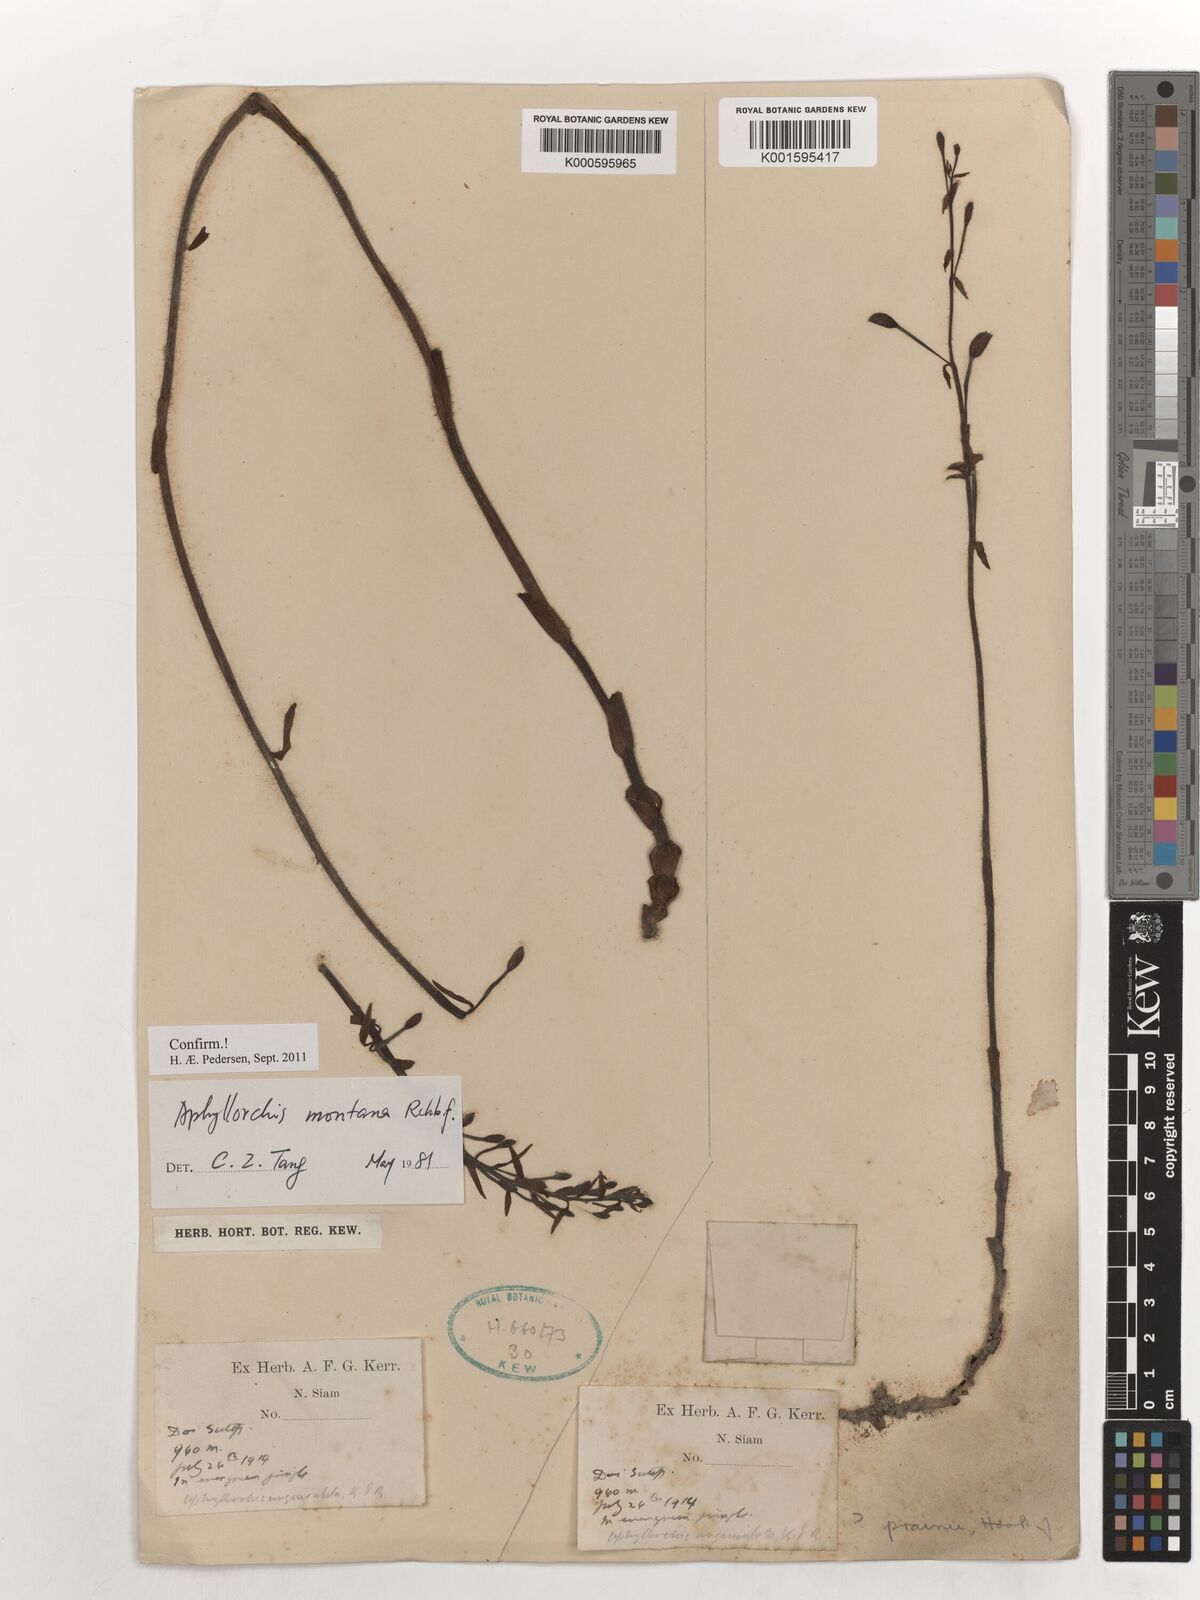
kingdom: Plantae
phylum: Tracheophyta
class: Liliopsida
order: Asparagales
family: Orchidaceae
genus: Aphyllorchis
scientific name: Aphyllorchis montana
